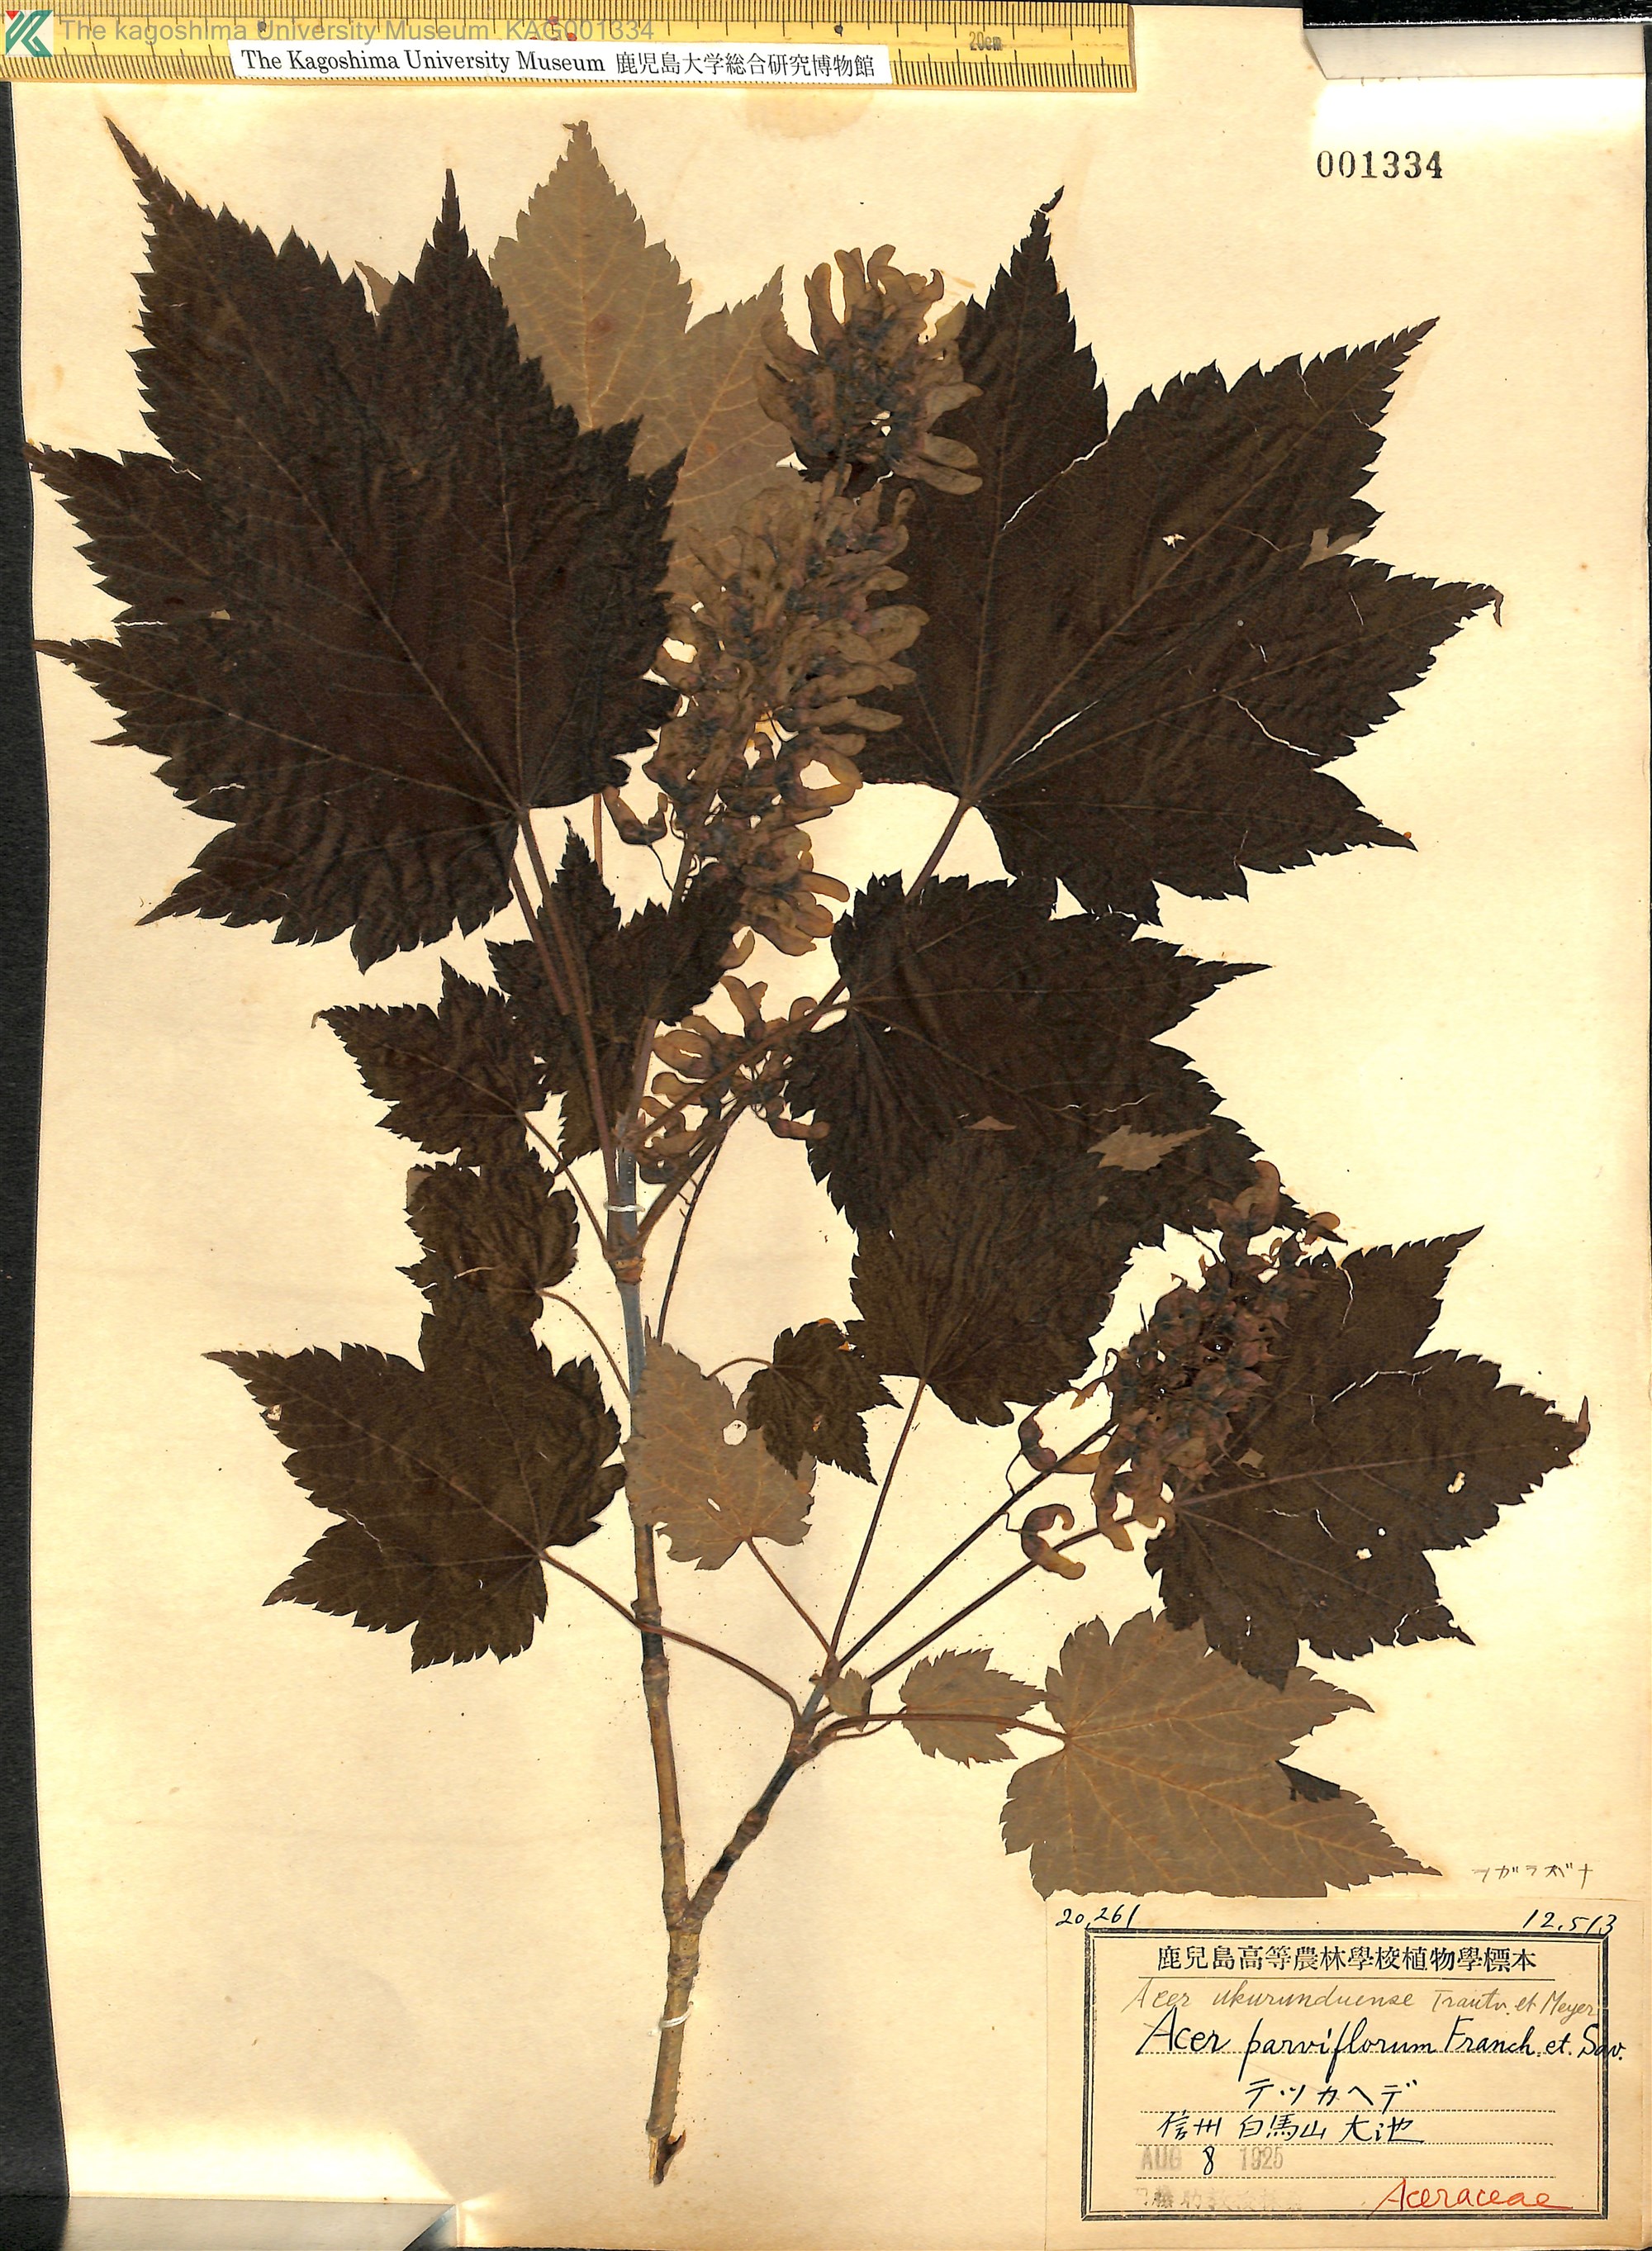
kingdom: Plantae
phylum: Tracheophyta
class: Magnoliopsida
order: Sapindales
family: Sapindaceae
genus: Acer
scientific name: Acer ukurunduense
